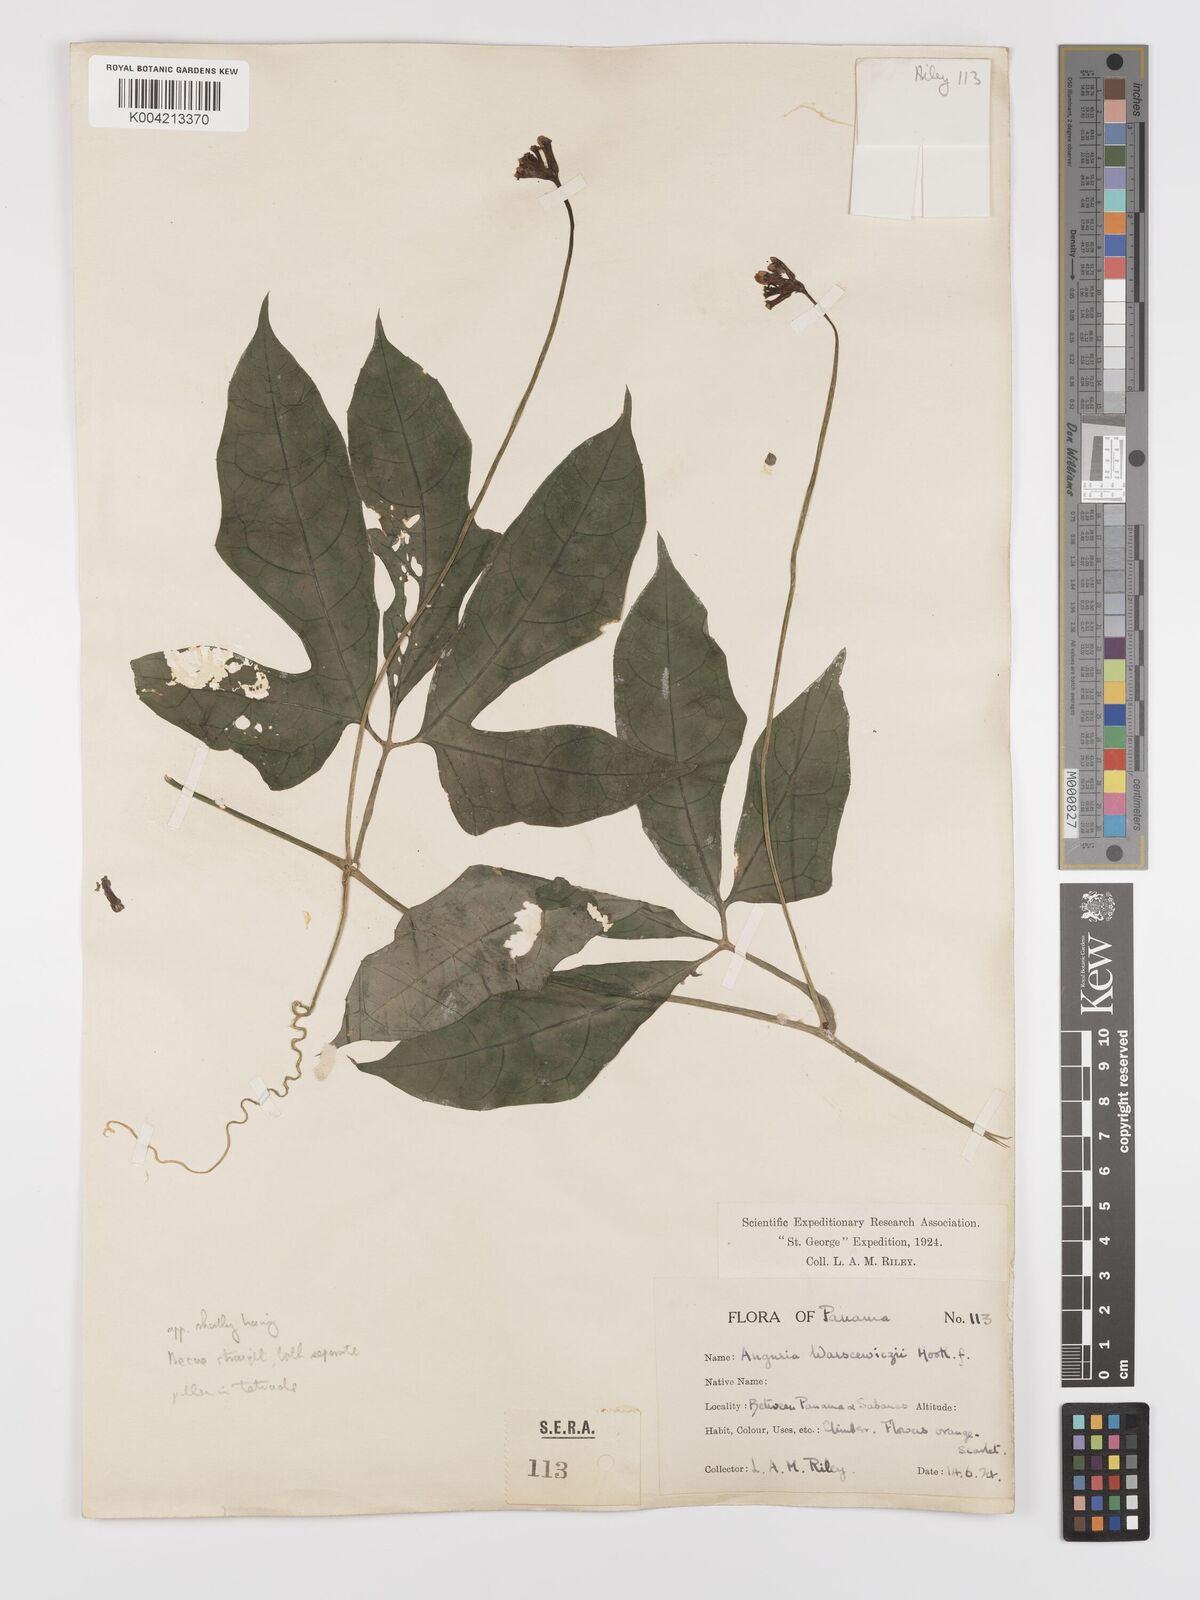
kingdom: Plantae
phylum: Tracheophyta
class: Magnoliopsida
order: Cucurbitales
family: Cucurbitaceae
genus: Psiguria
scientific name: Psiguria warscewiczii
